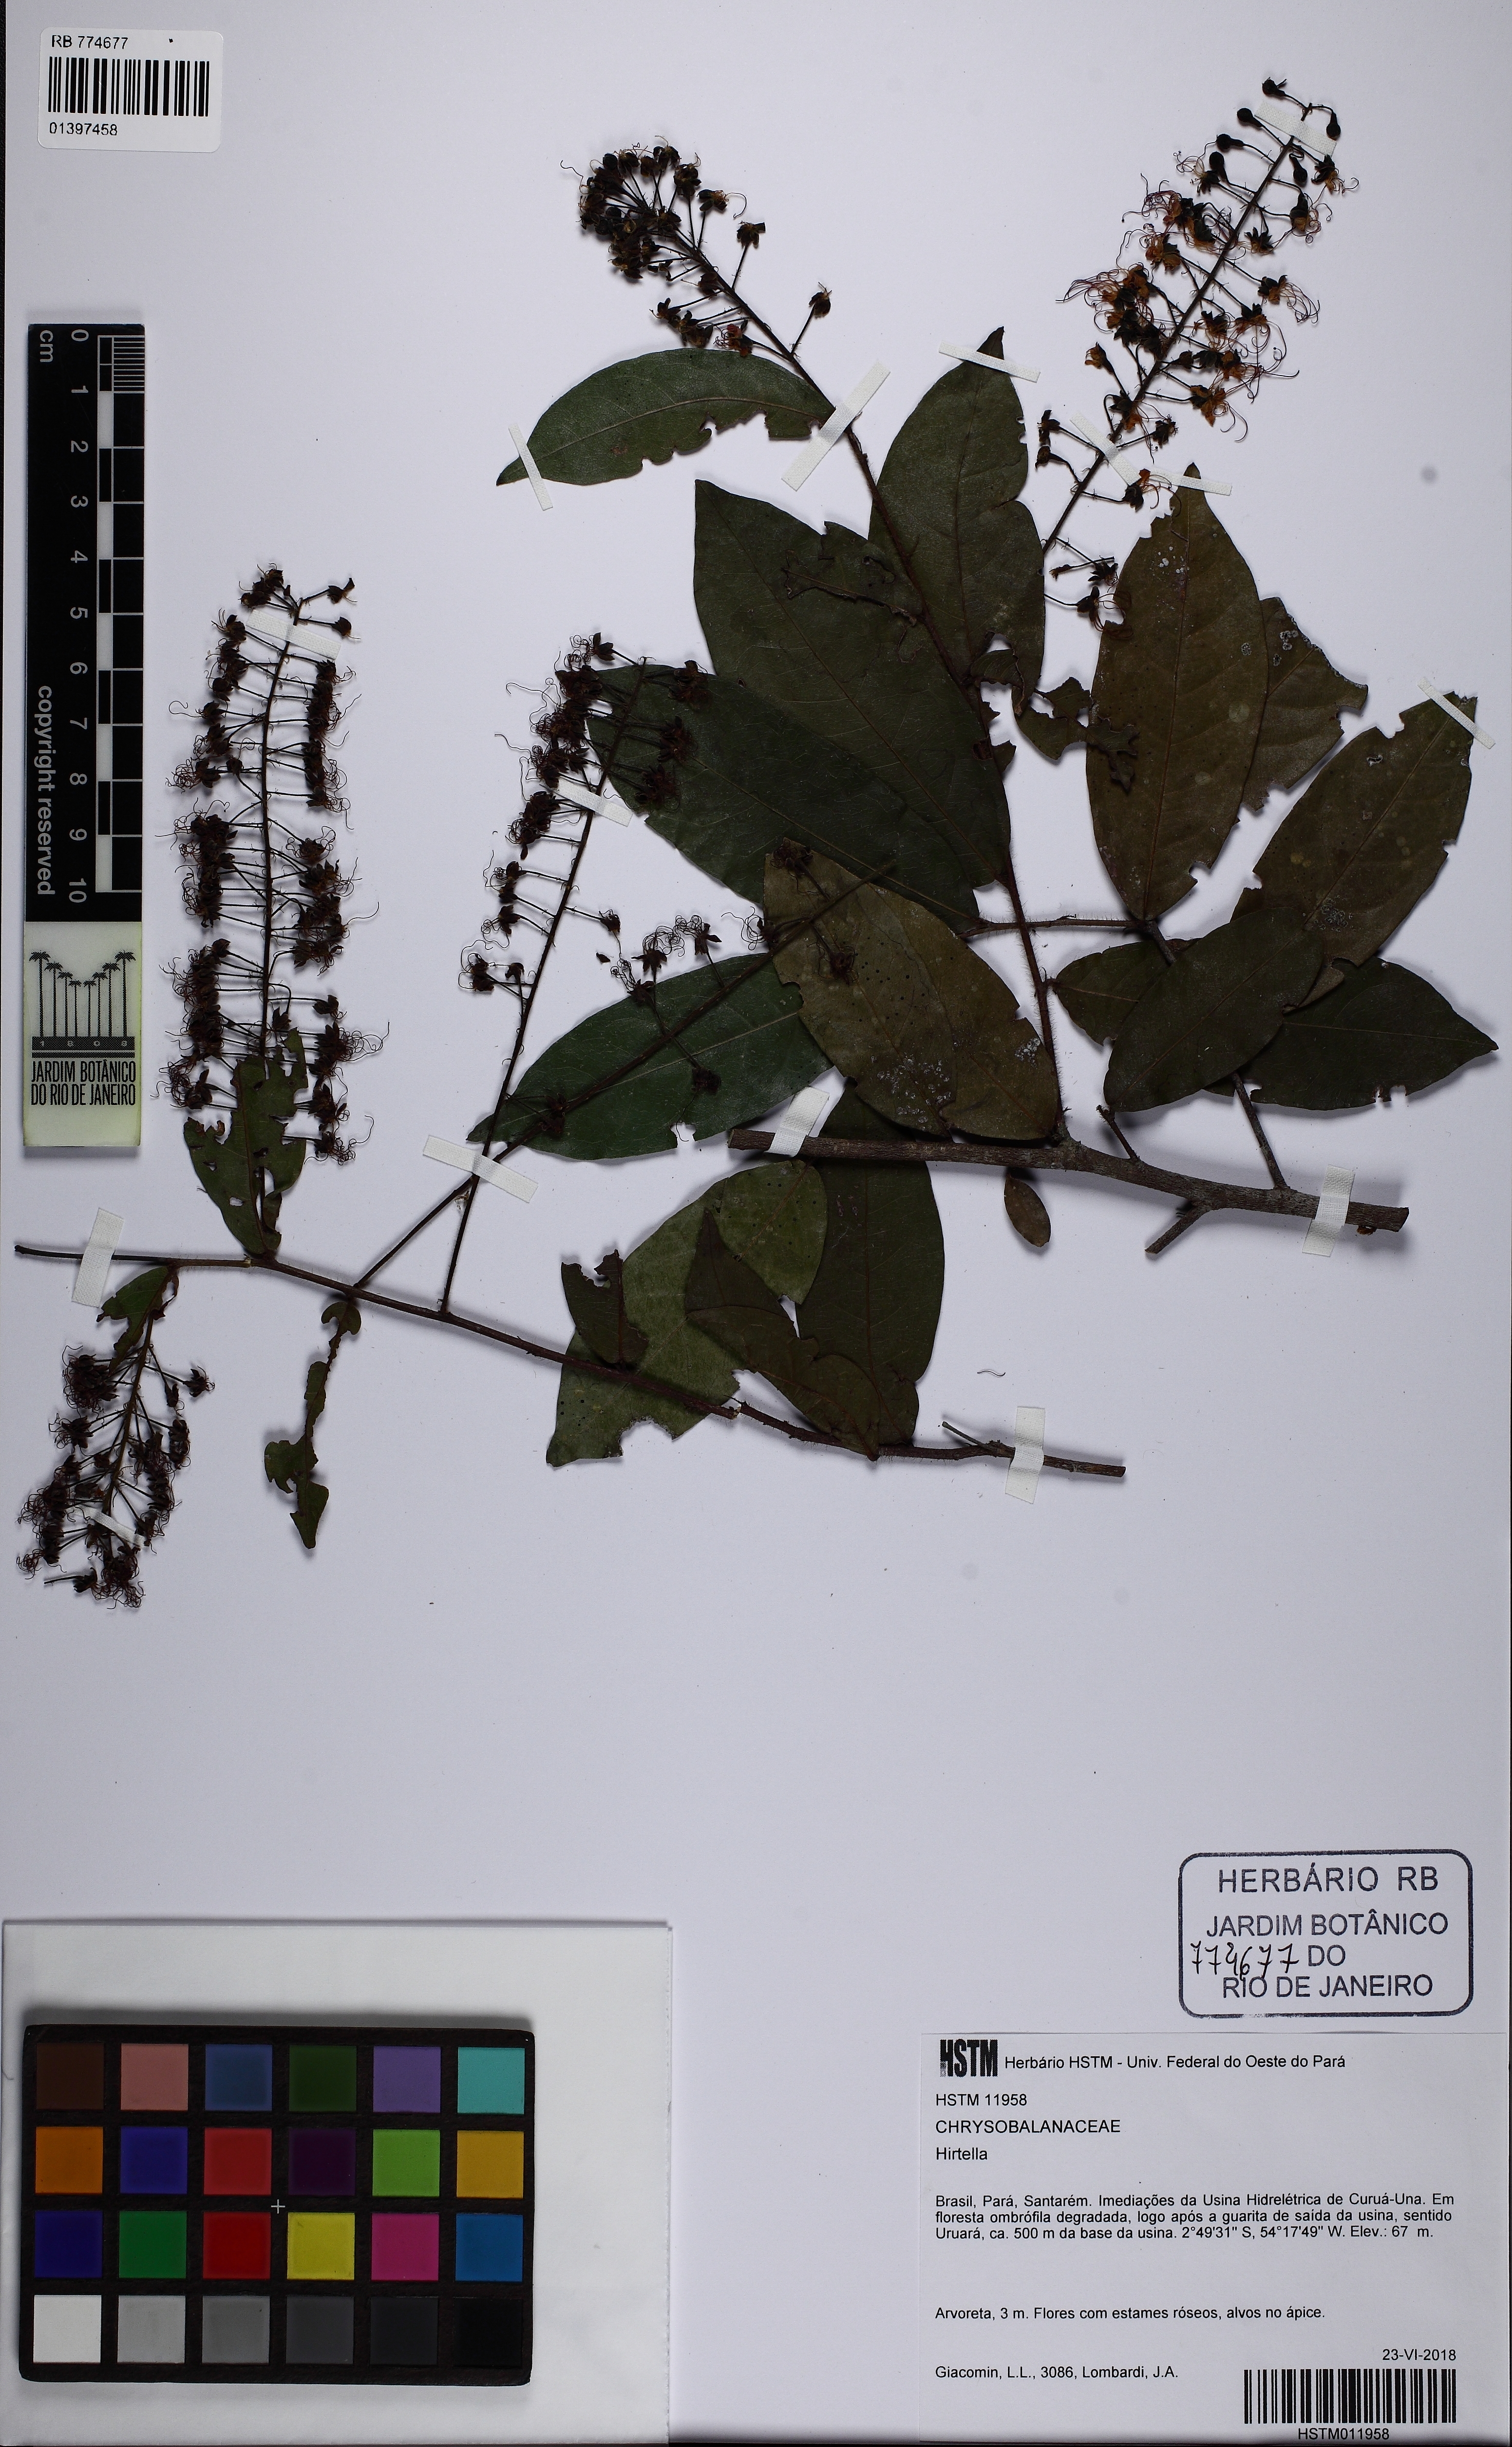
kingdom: Plantae
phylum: Tracheophyta
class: Magnoliopsida
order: Malpighiales
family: Chrysobalanaceae
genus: Hirtella
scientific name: Hirtella
